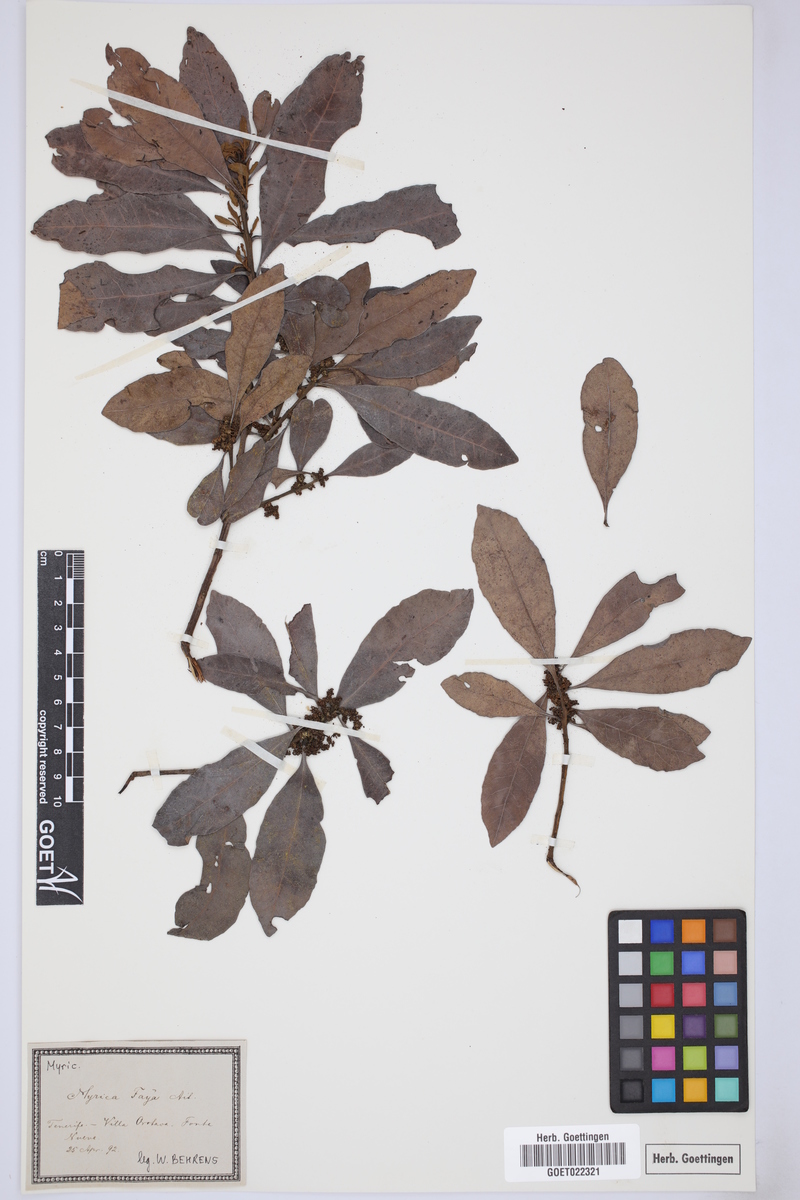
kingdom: Plantae
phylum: Tracheophyta
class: Magnoliopsida
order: Fagales
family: Myricaceae
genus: Morella
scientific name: Morella faya
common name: Firetree
